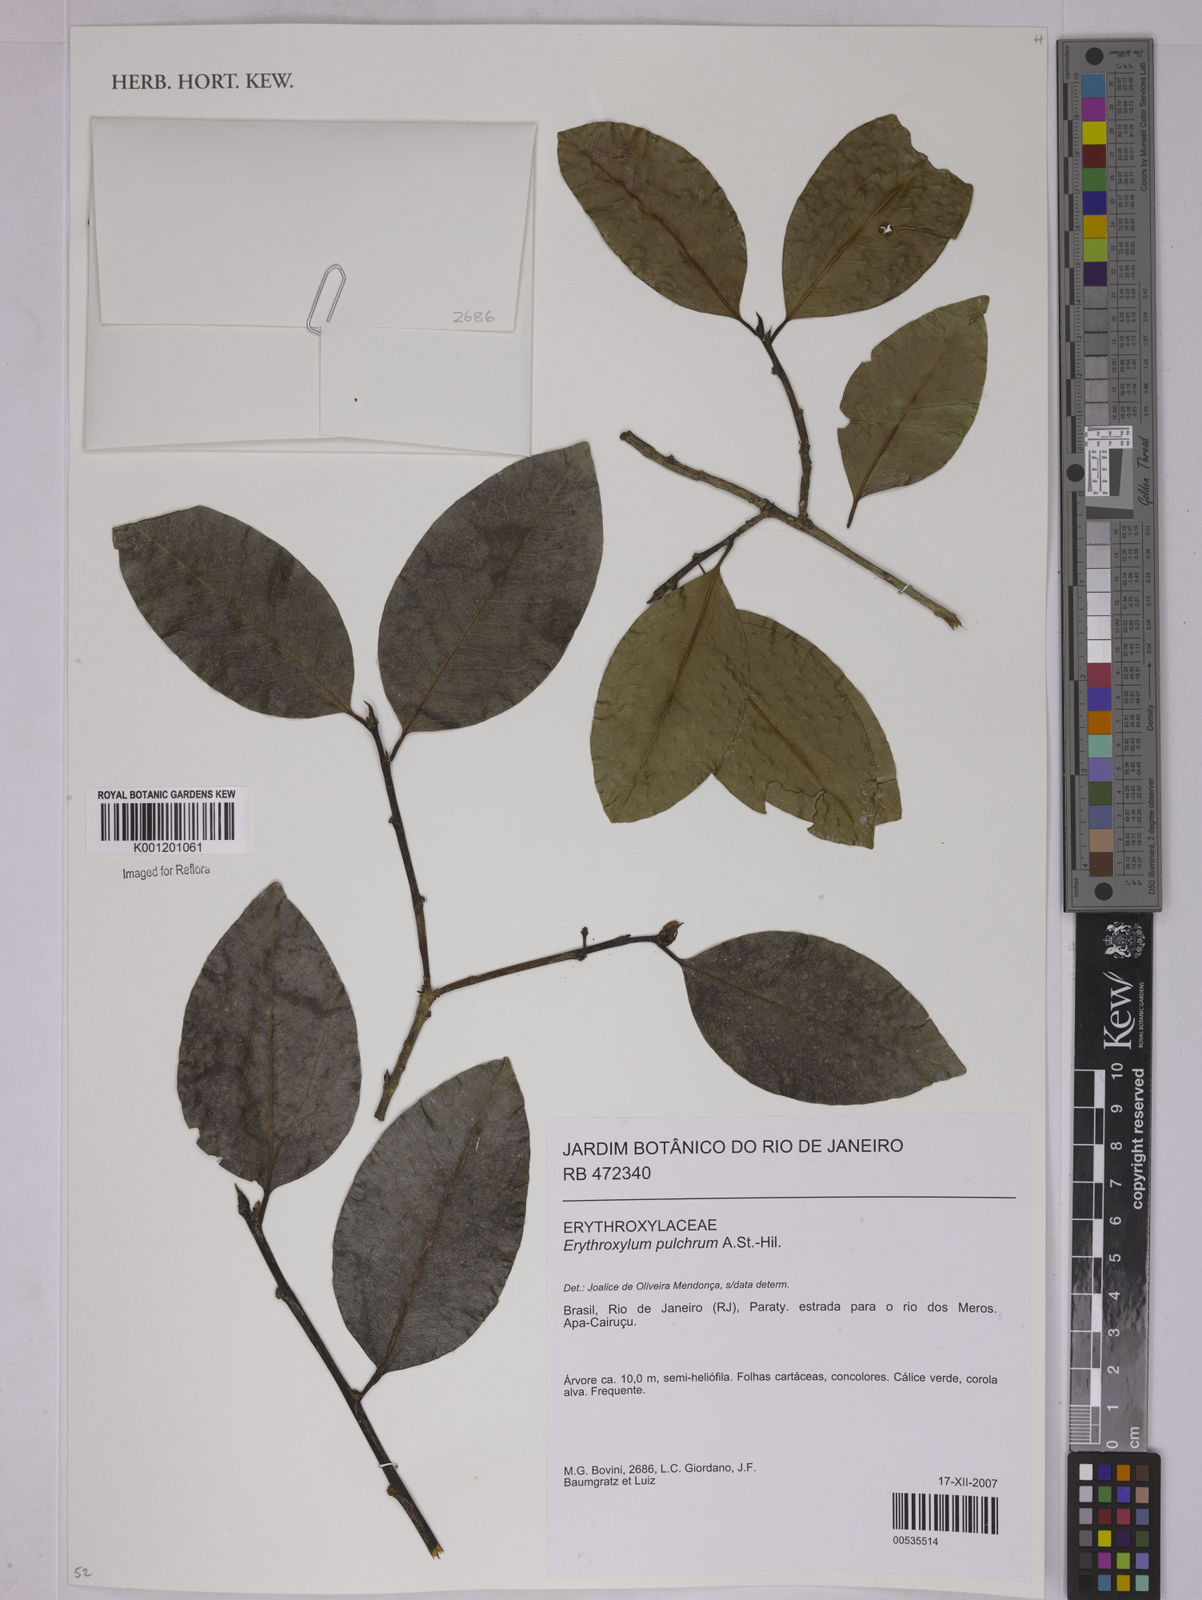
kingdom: Plantae
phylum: Tracheophyta
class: Magnoliopsida
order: Malpighiales
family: Erythroxylaceae
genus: Erythroxylum
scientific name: Erythroxylum pulchrum
